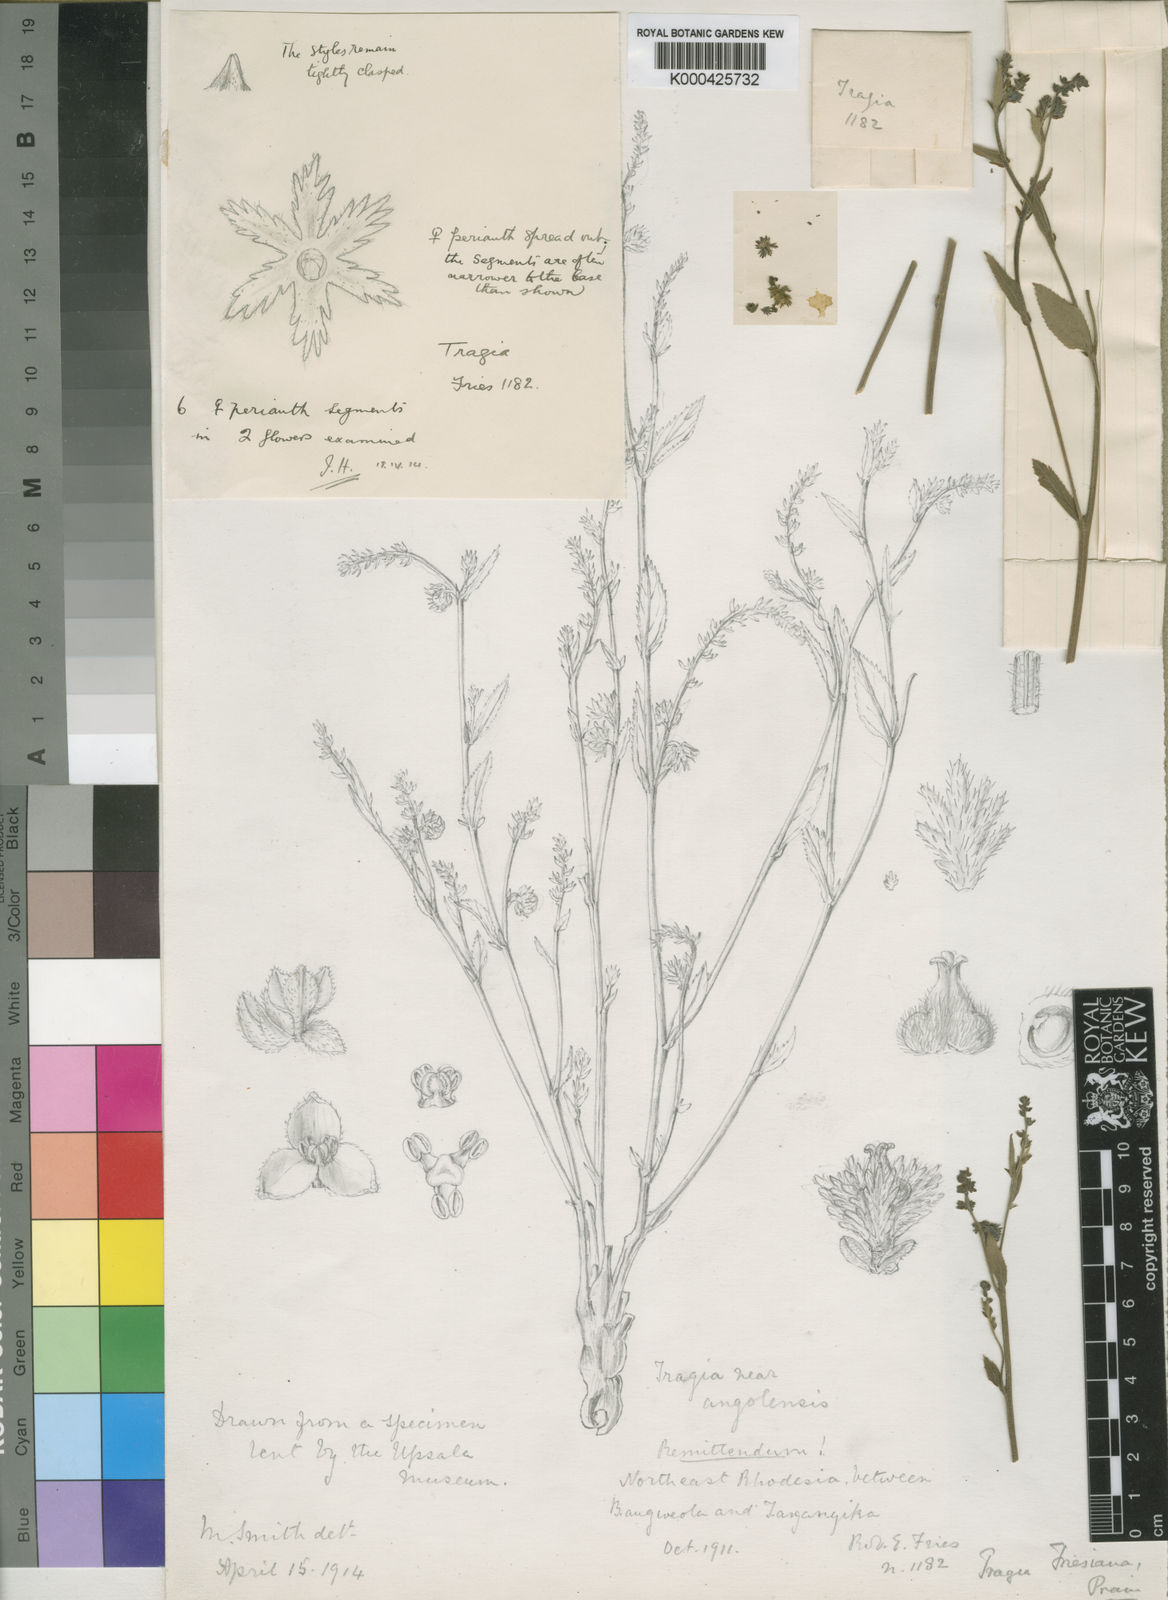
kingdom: Plantae
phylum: Tracheophyta
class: Magnoliopsida
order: Malpighiales
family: Euphorbiaceae
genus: Tragiella
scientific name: Tragiella
